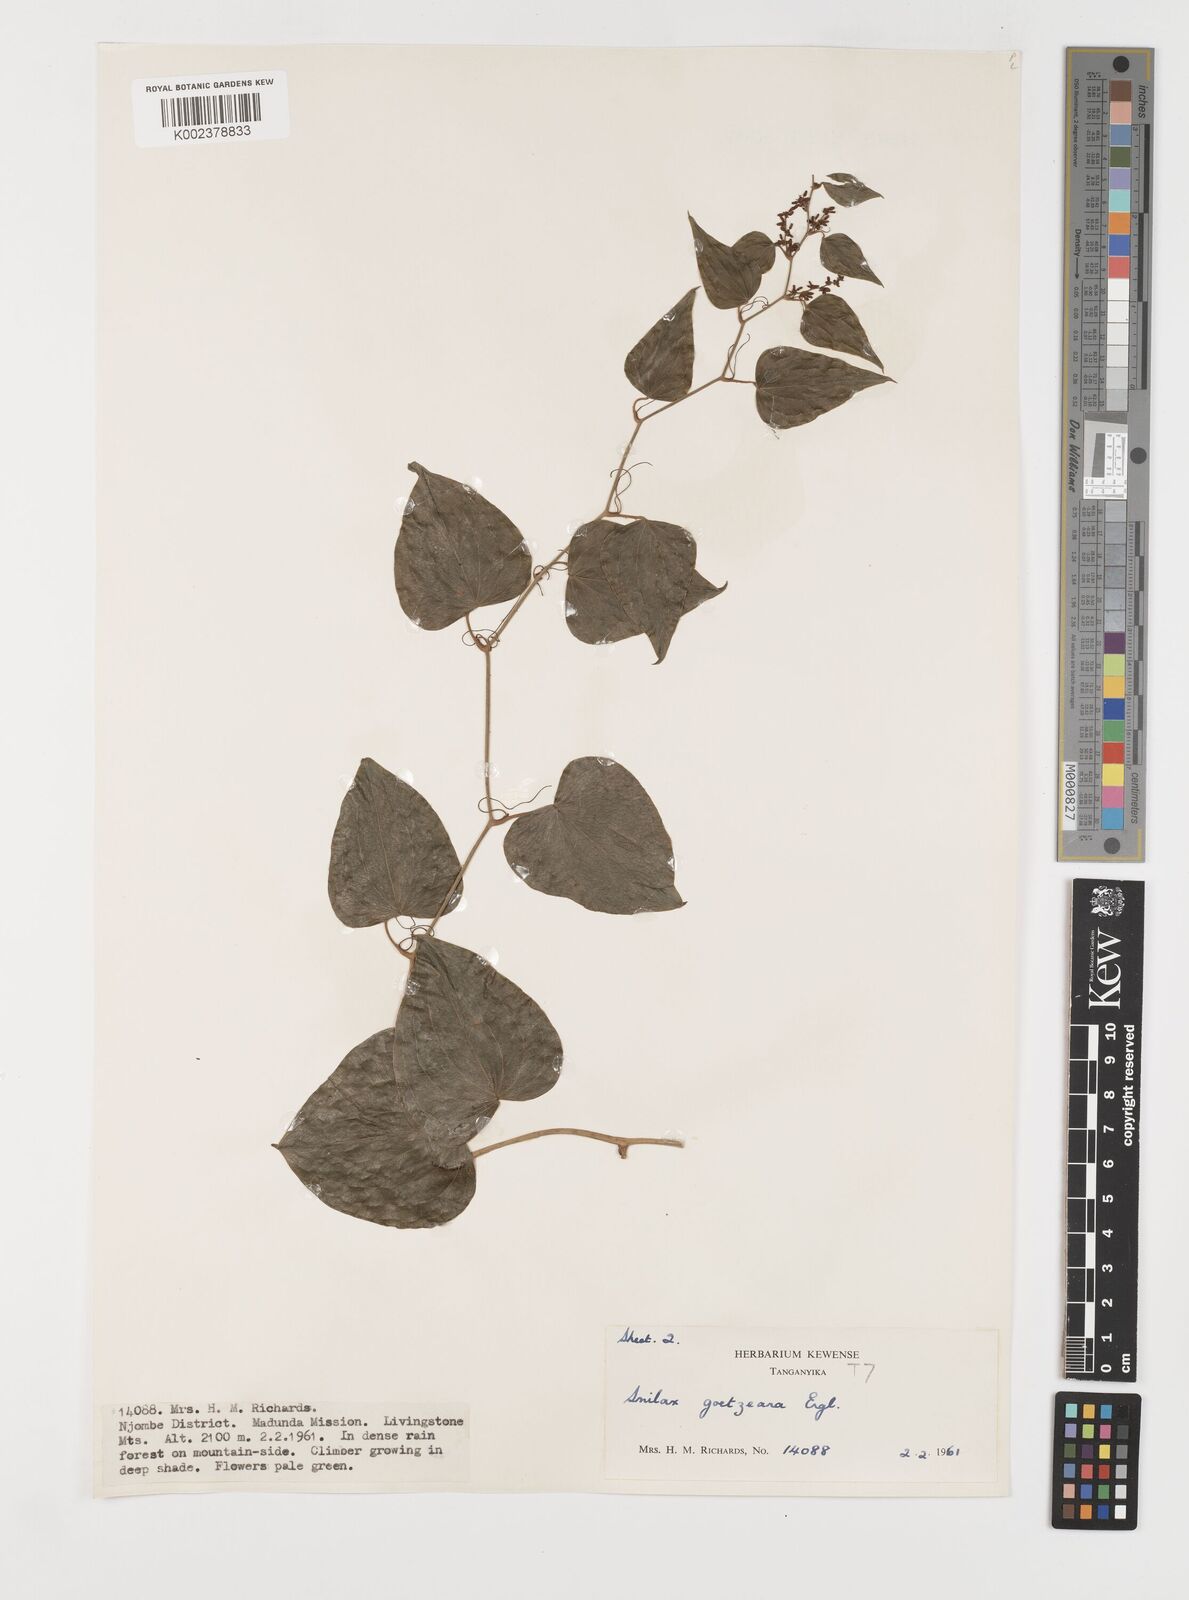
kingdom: Plantae
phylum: Tracheophyta
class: Liliopsida
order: Liliales
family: Smilacaceae
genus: Smilax
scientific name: Smilax aspera
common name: Common smilax
